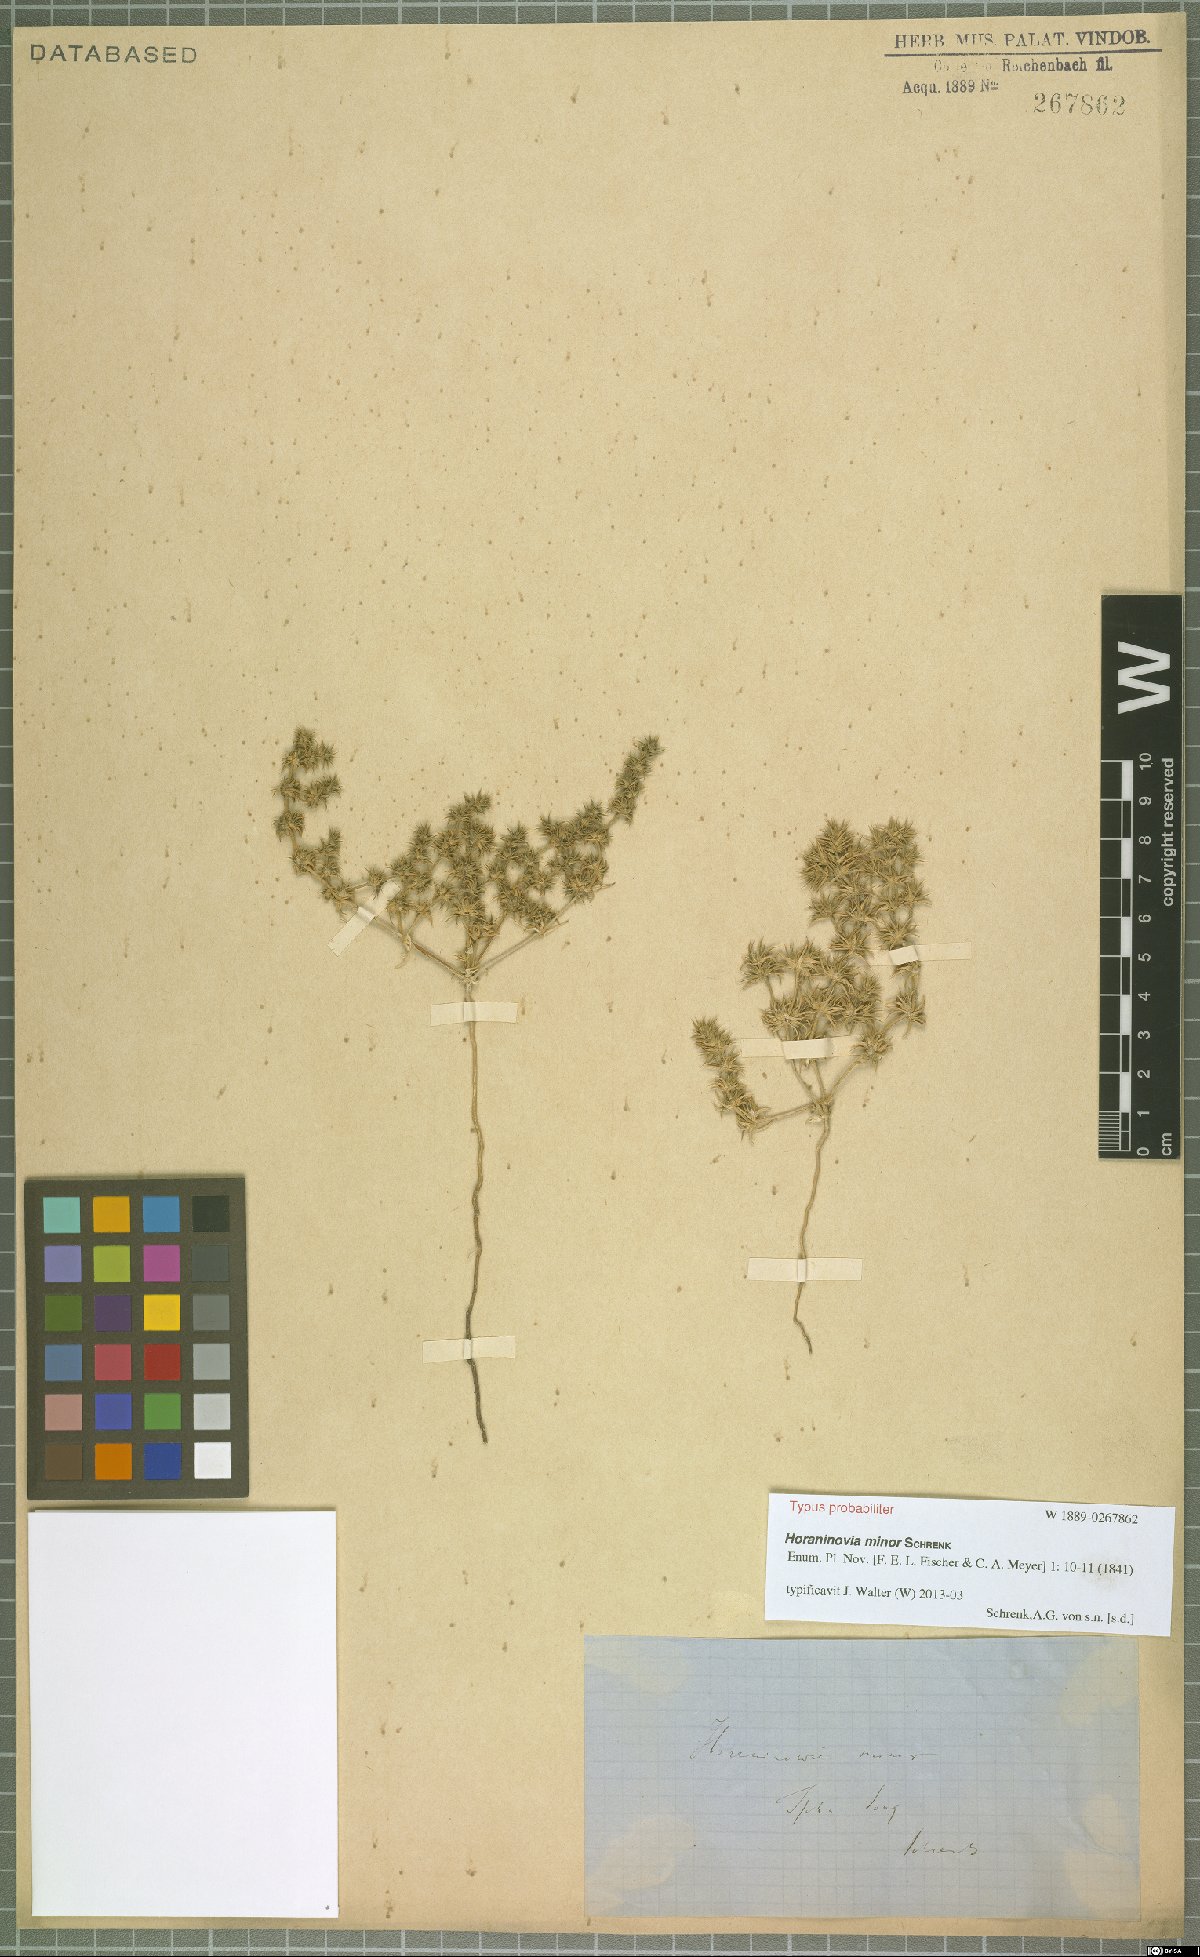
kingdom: Plantae
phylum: Tracheophyta
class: Magnoliopsida
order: Caryophyllales
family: Amaranthaceae
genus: Horaninovia
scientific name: Horaninovia minor
